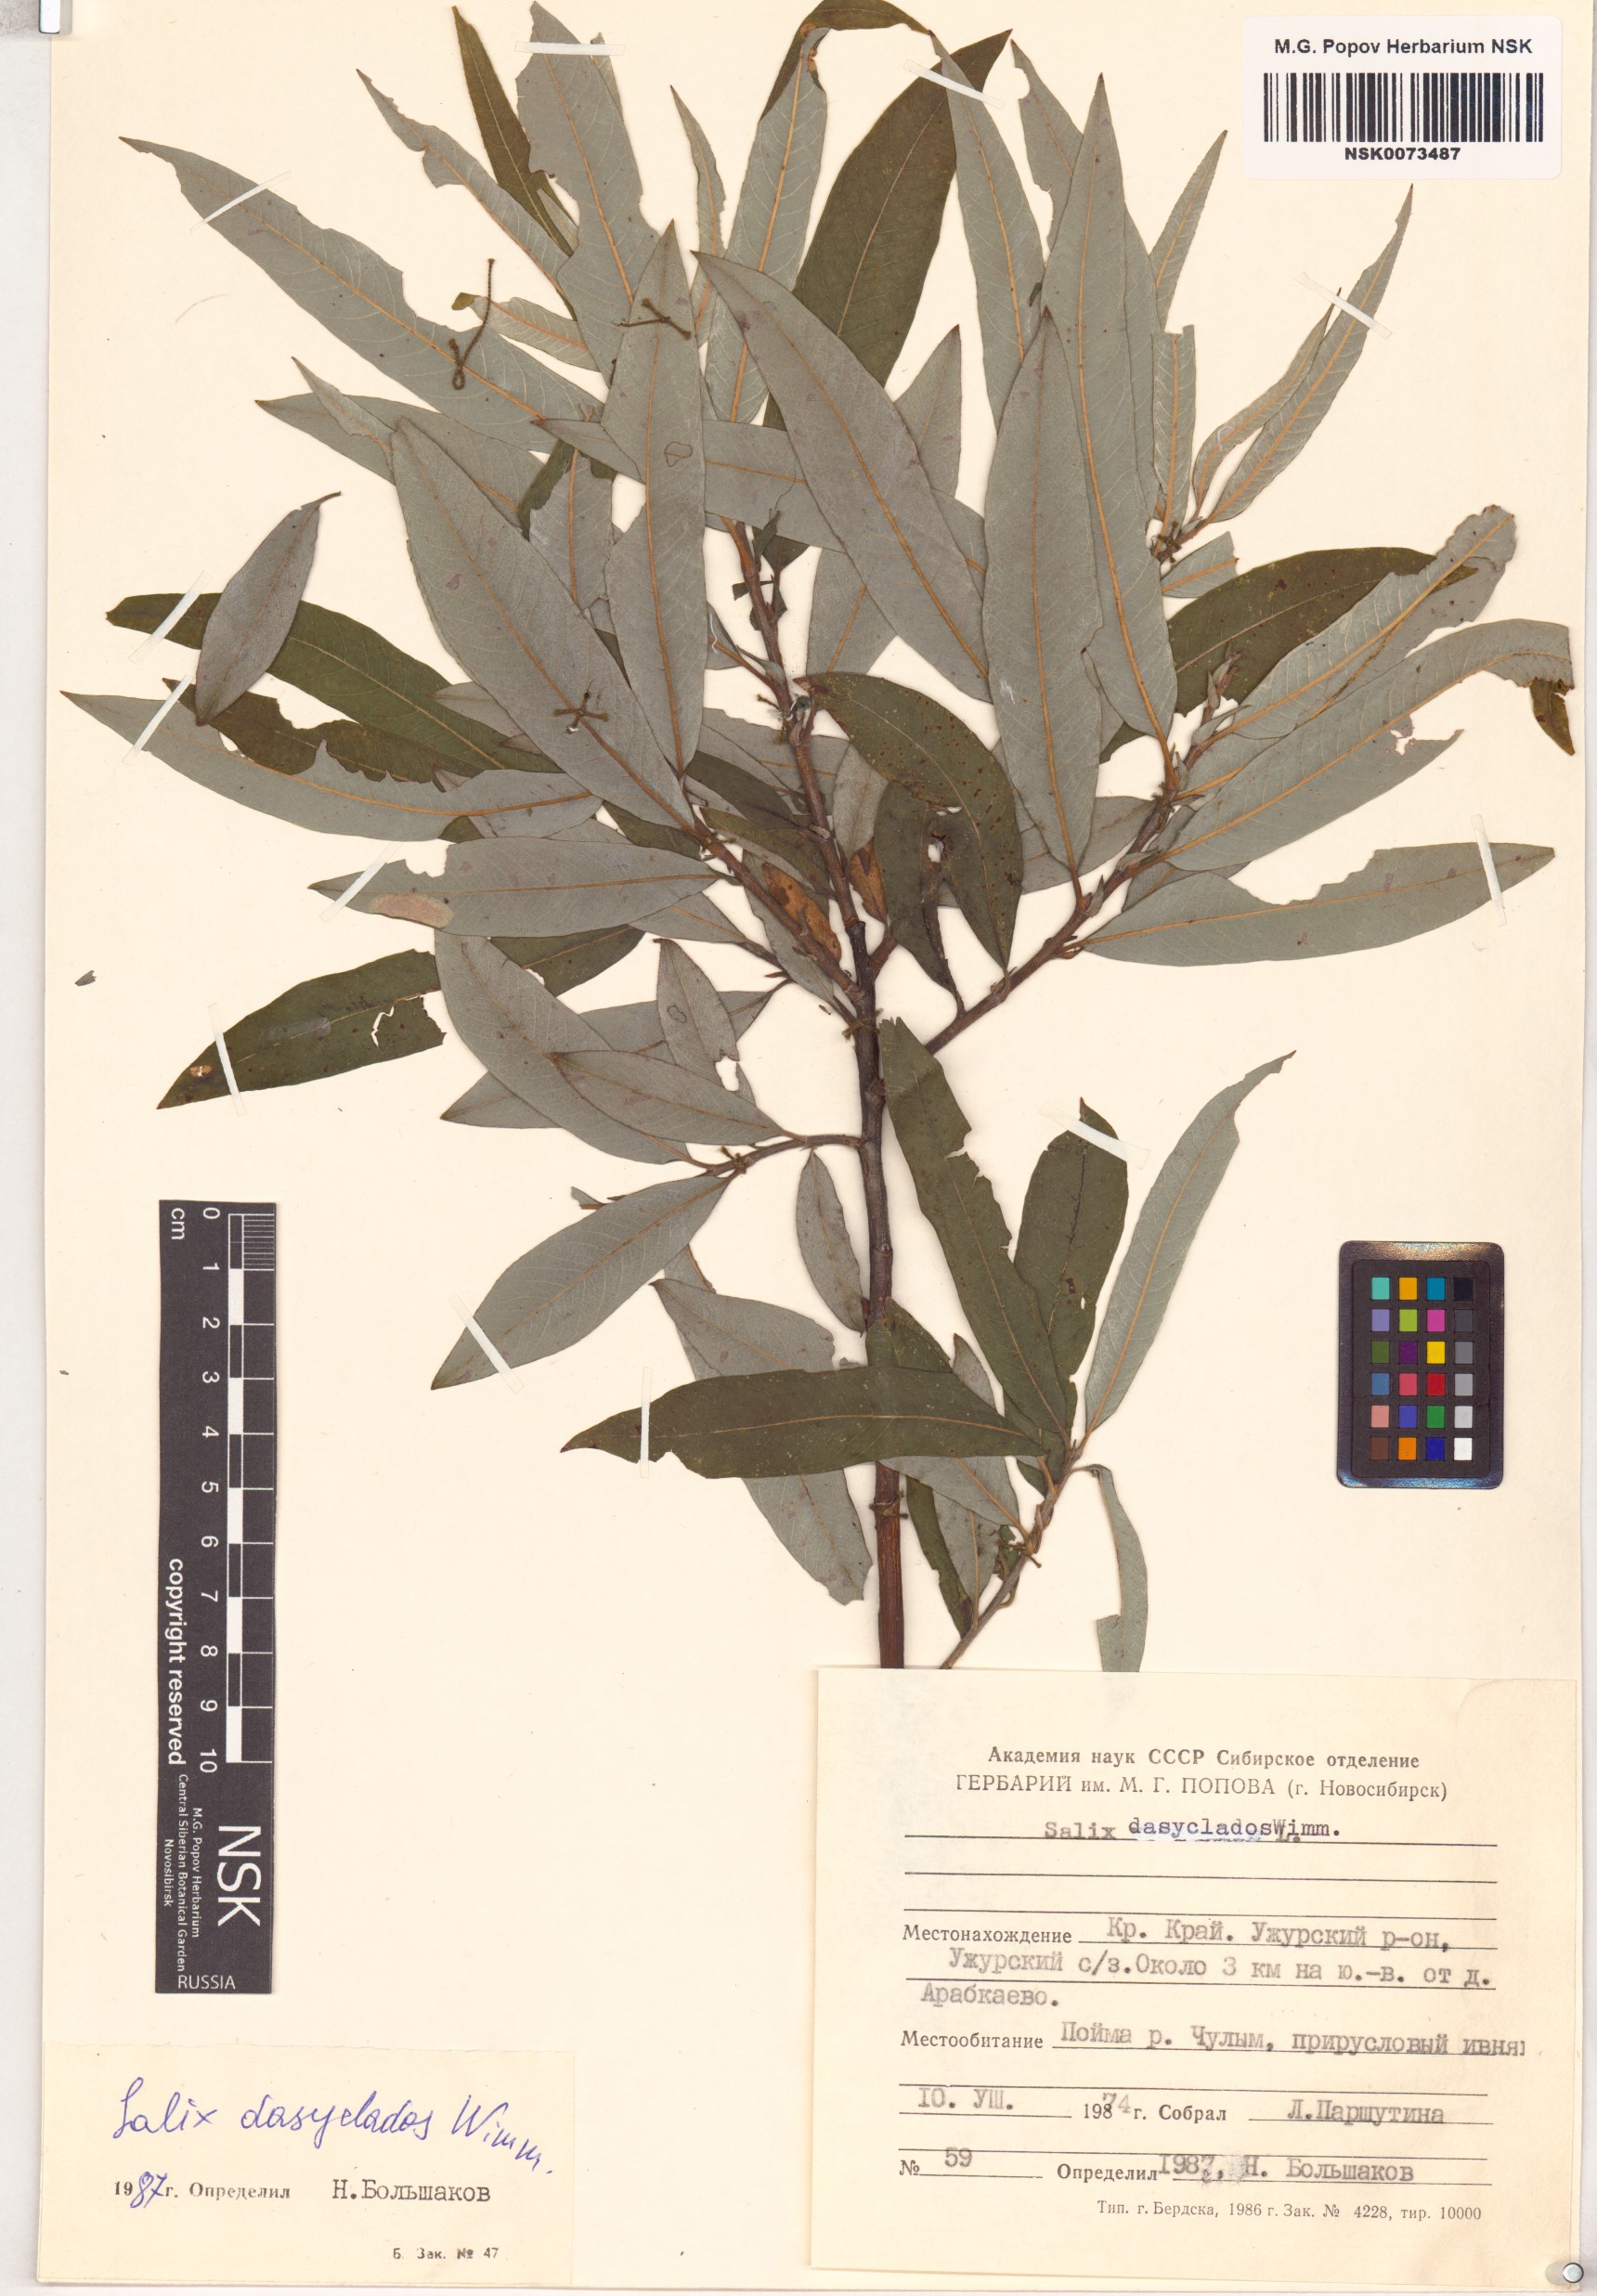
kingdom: Plantae
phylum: Tracheophyta
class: Magnoliopsida
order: Malpighiales
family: Salicaceae
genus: Salix
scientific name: Salix gmelinii
